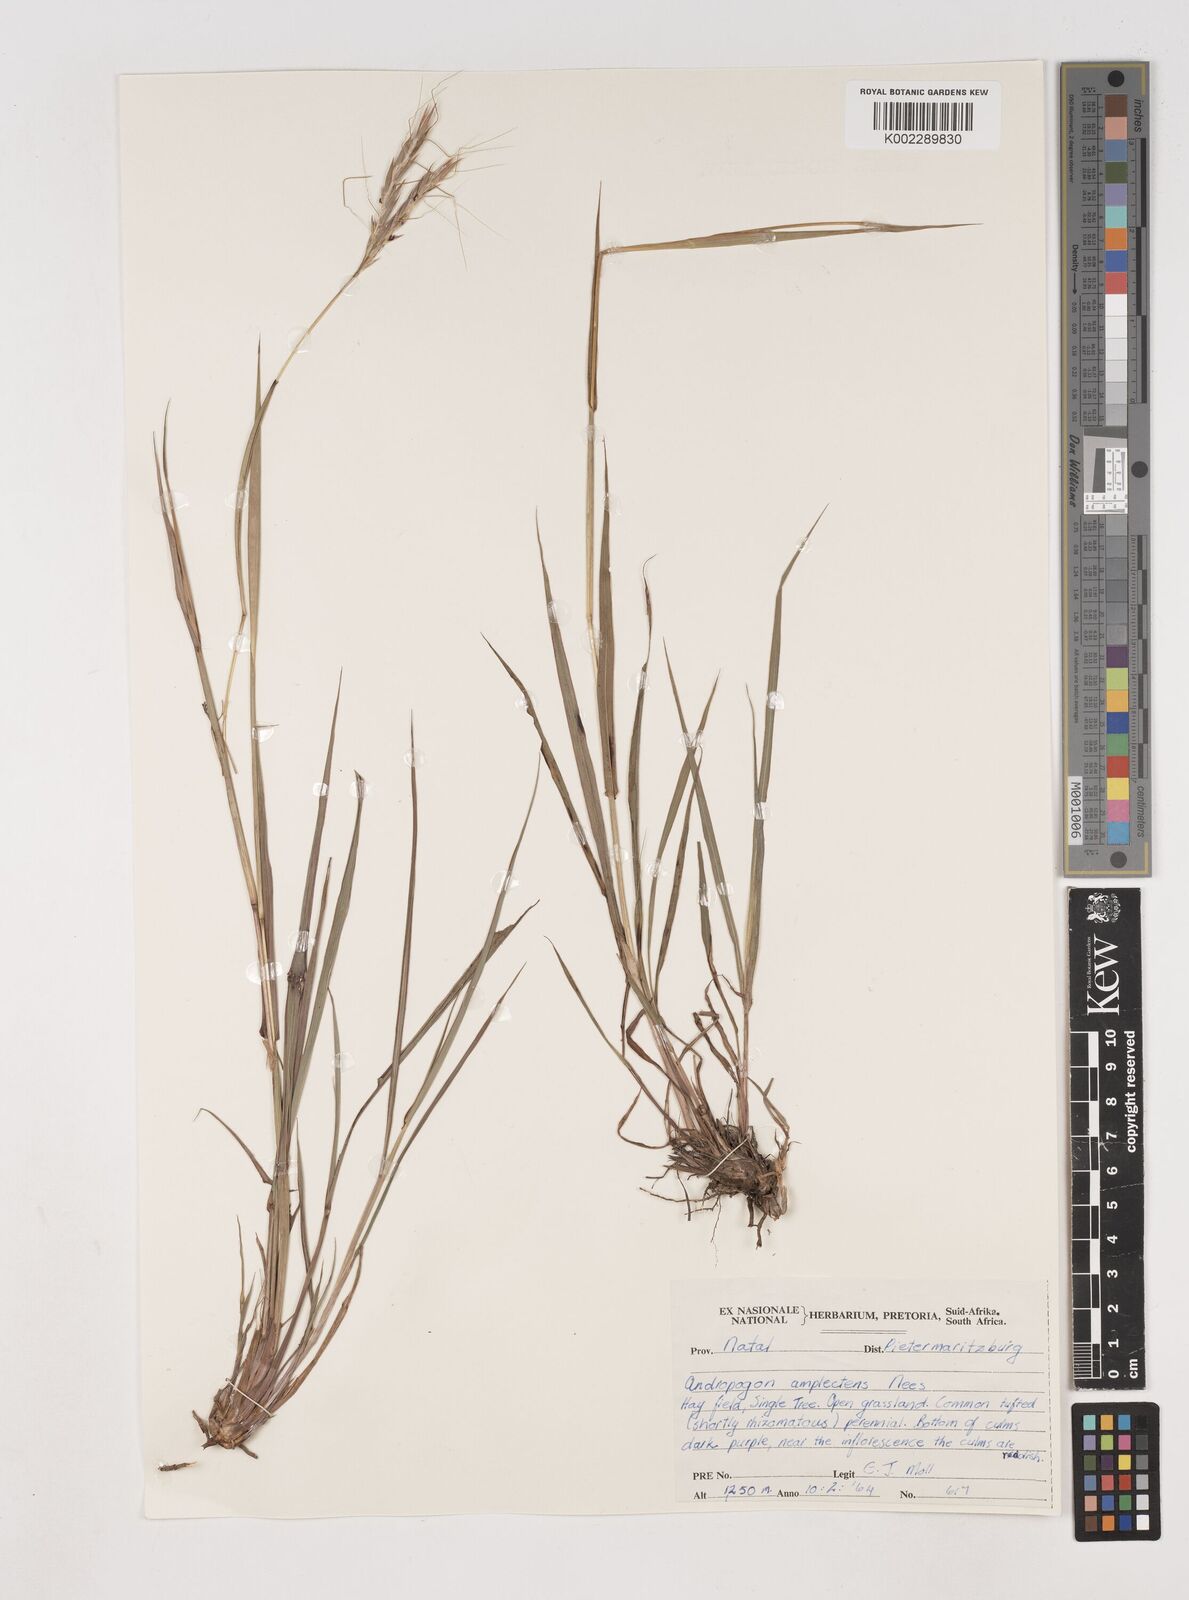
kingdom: Plantae
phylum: Tracheophyta
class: Liliopsida
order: Poales
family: Poaceae
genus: Diheteropogon
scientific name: Diheteropogon amplectens
